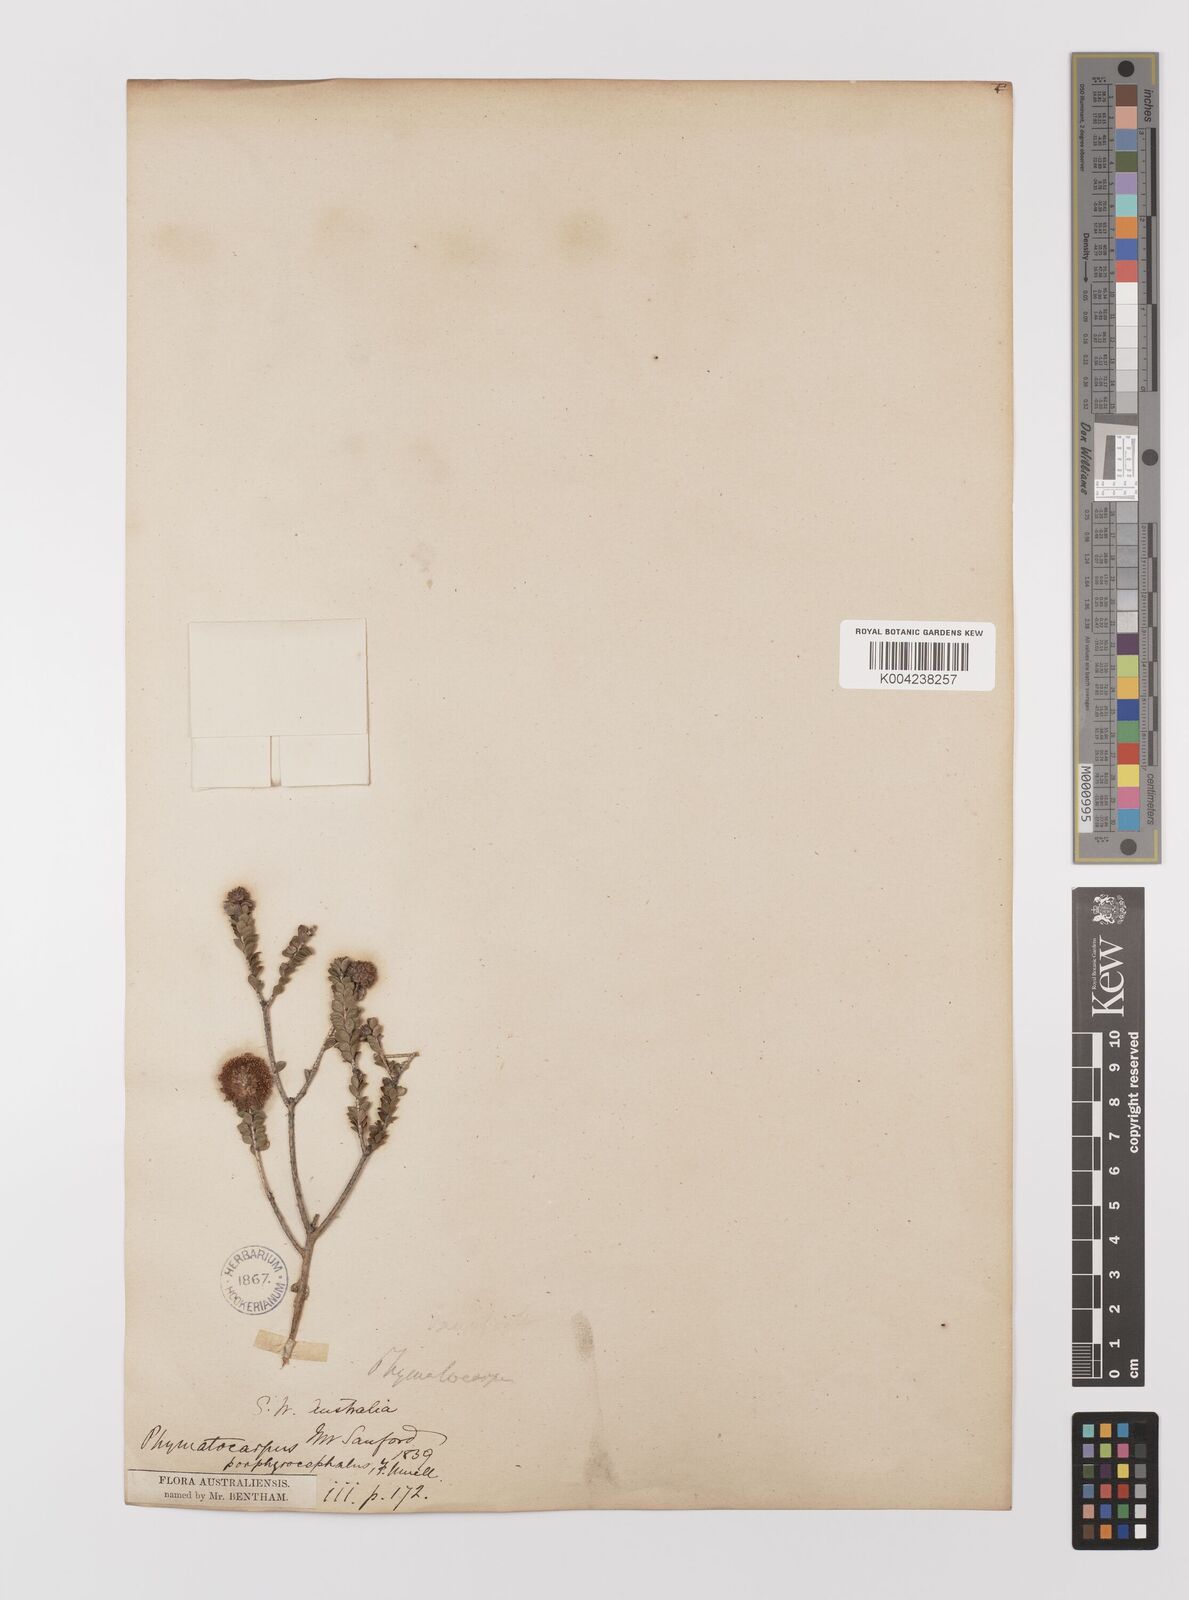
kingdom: Plantae
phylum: Tracheophyta
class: Magnoliopsida
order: Myrtales
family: Myrtaceae
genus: Melaleuca
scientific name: Melaleuca porphyrocephala
